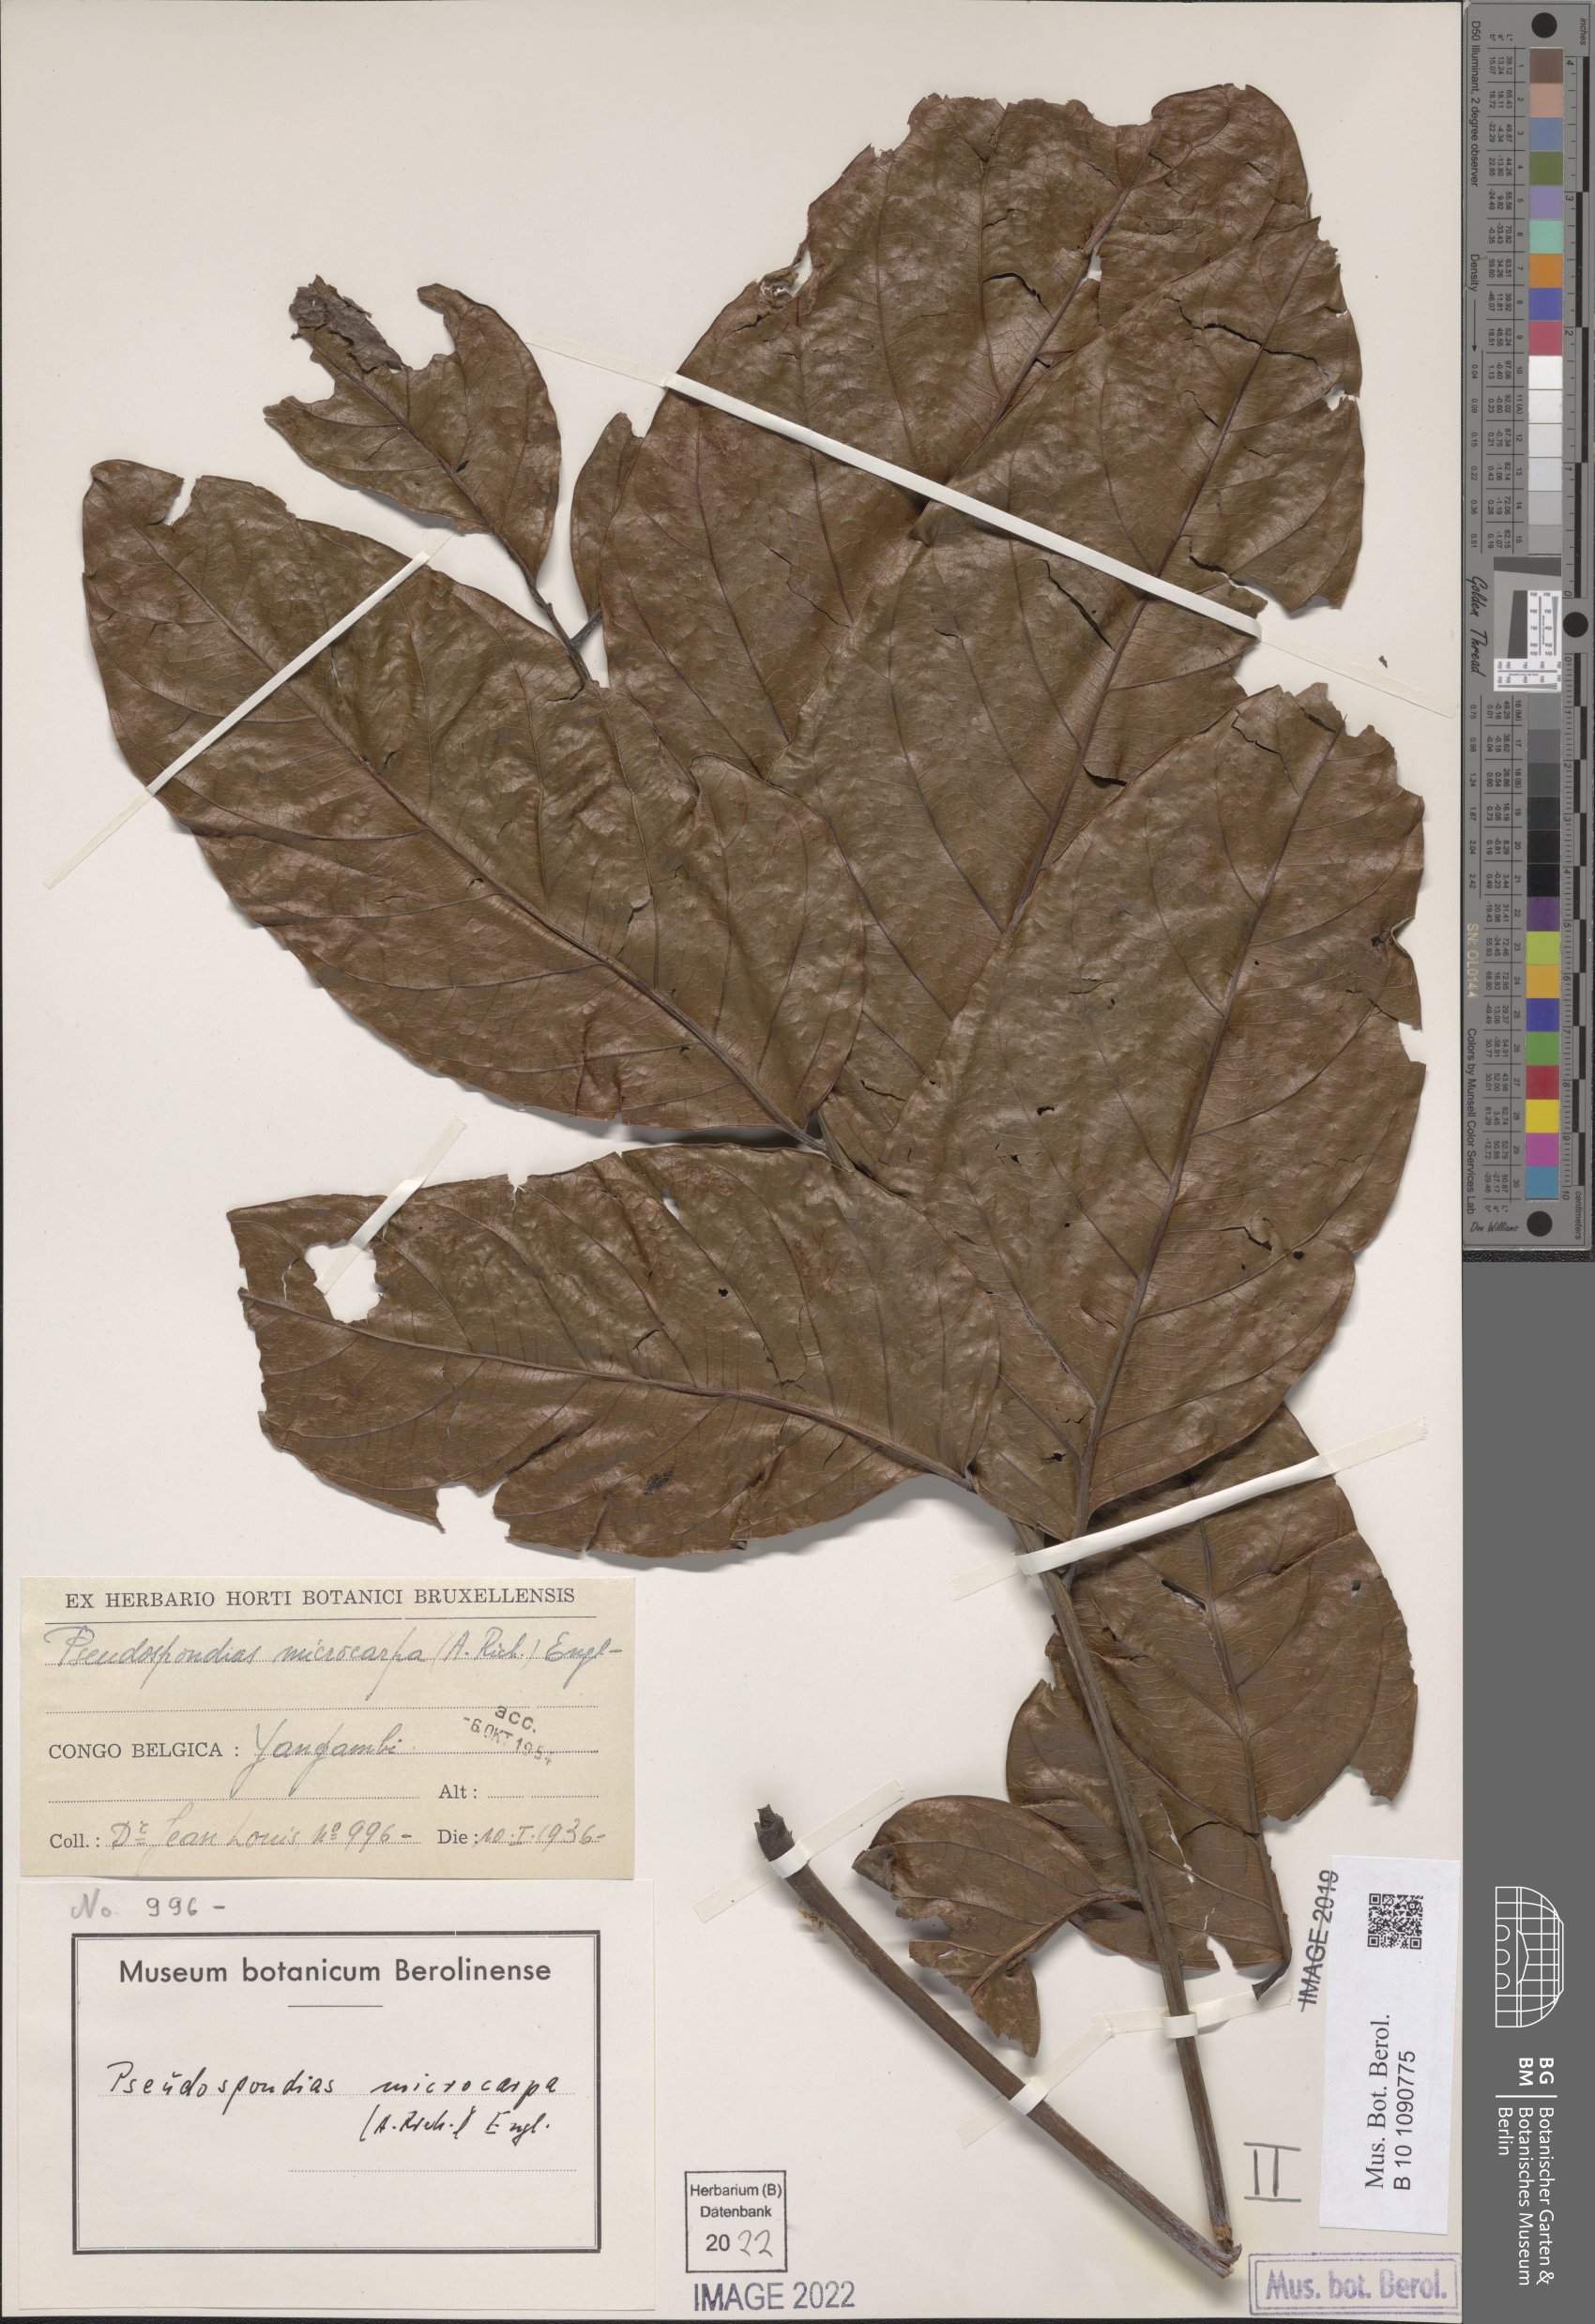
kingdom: Plantae
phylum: Tracheophyta
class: Magnoliopsida
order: Sapindales
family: Anacardiaceae
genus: Pseudospondias
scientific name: Pseudospondias microcarpa
